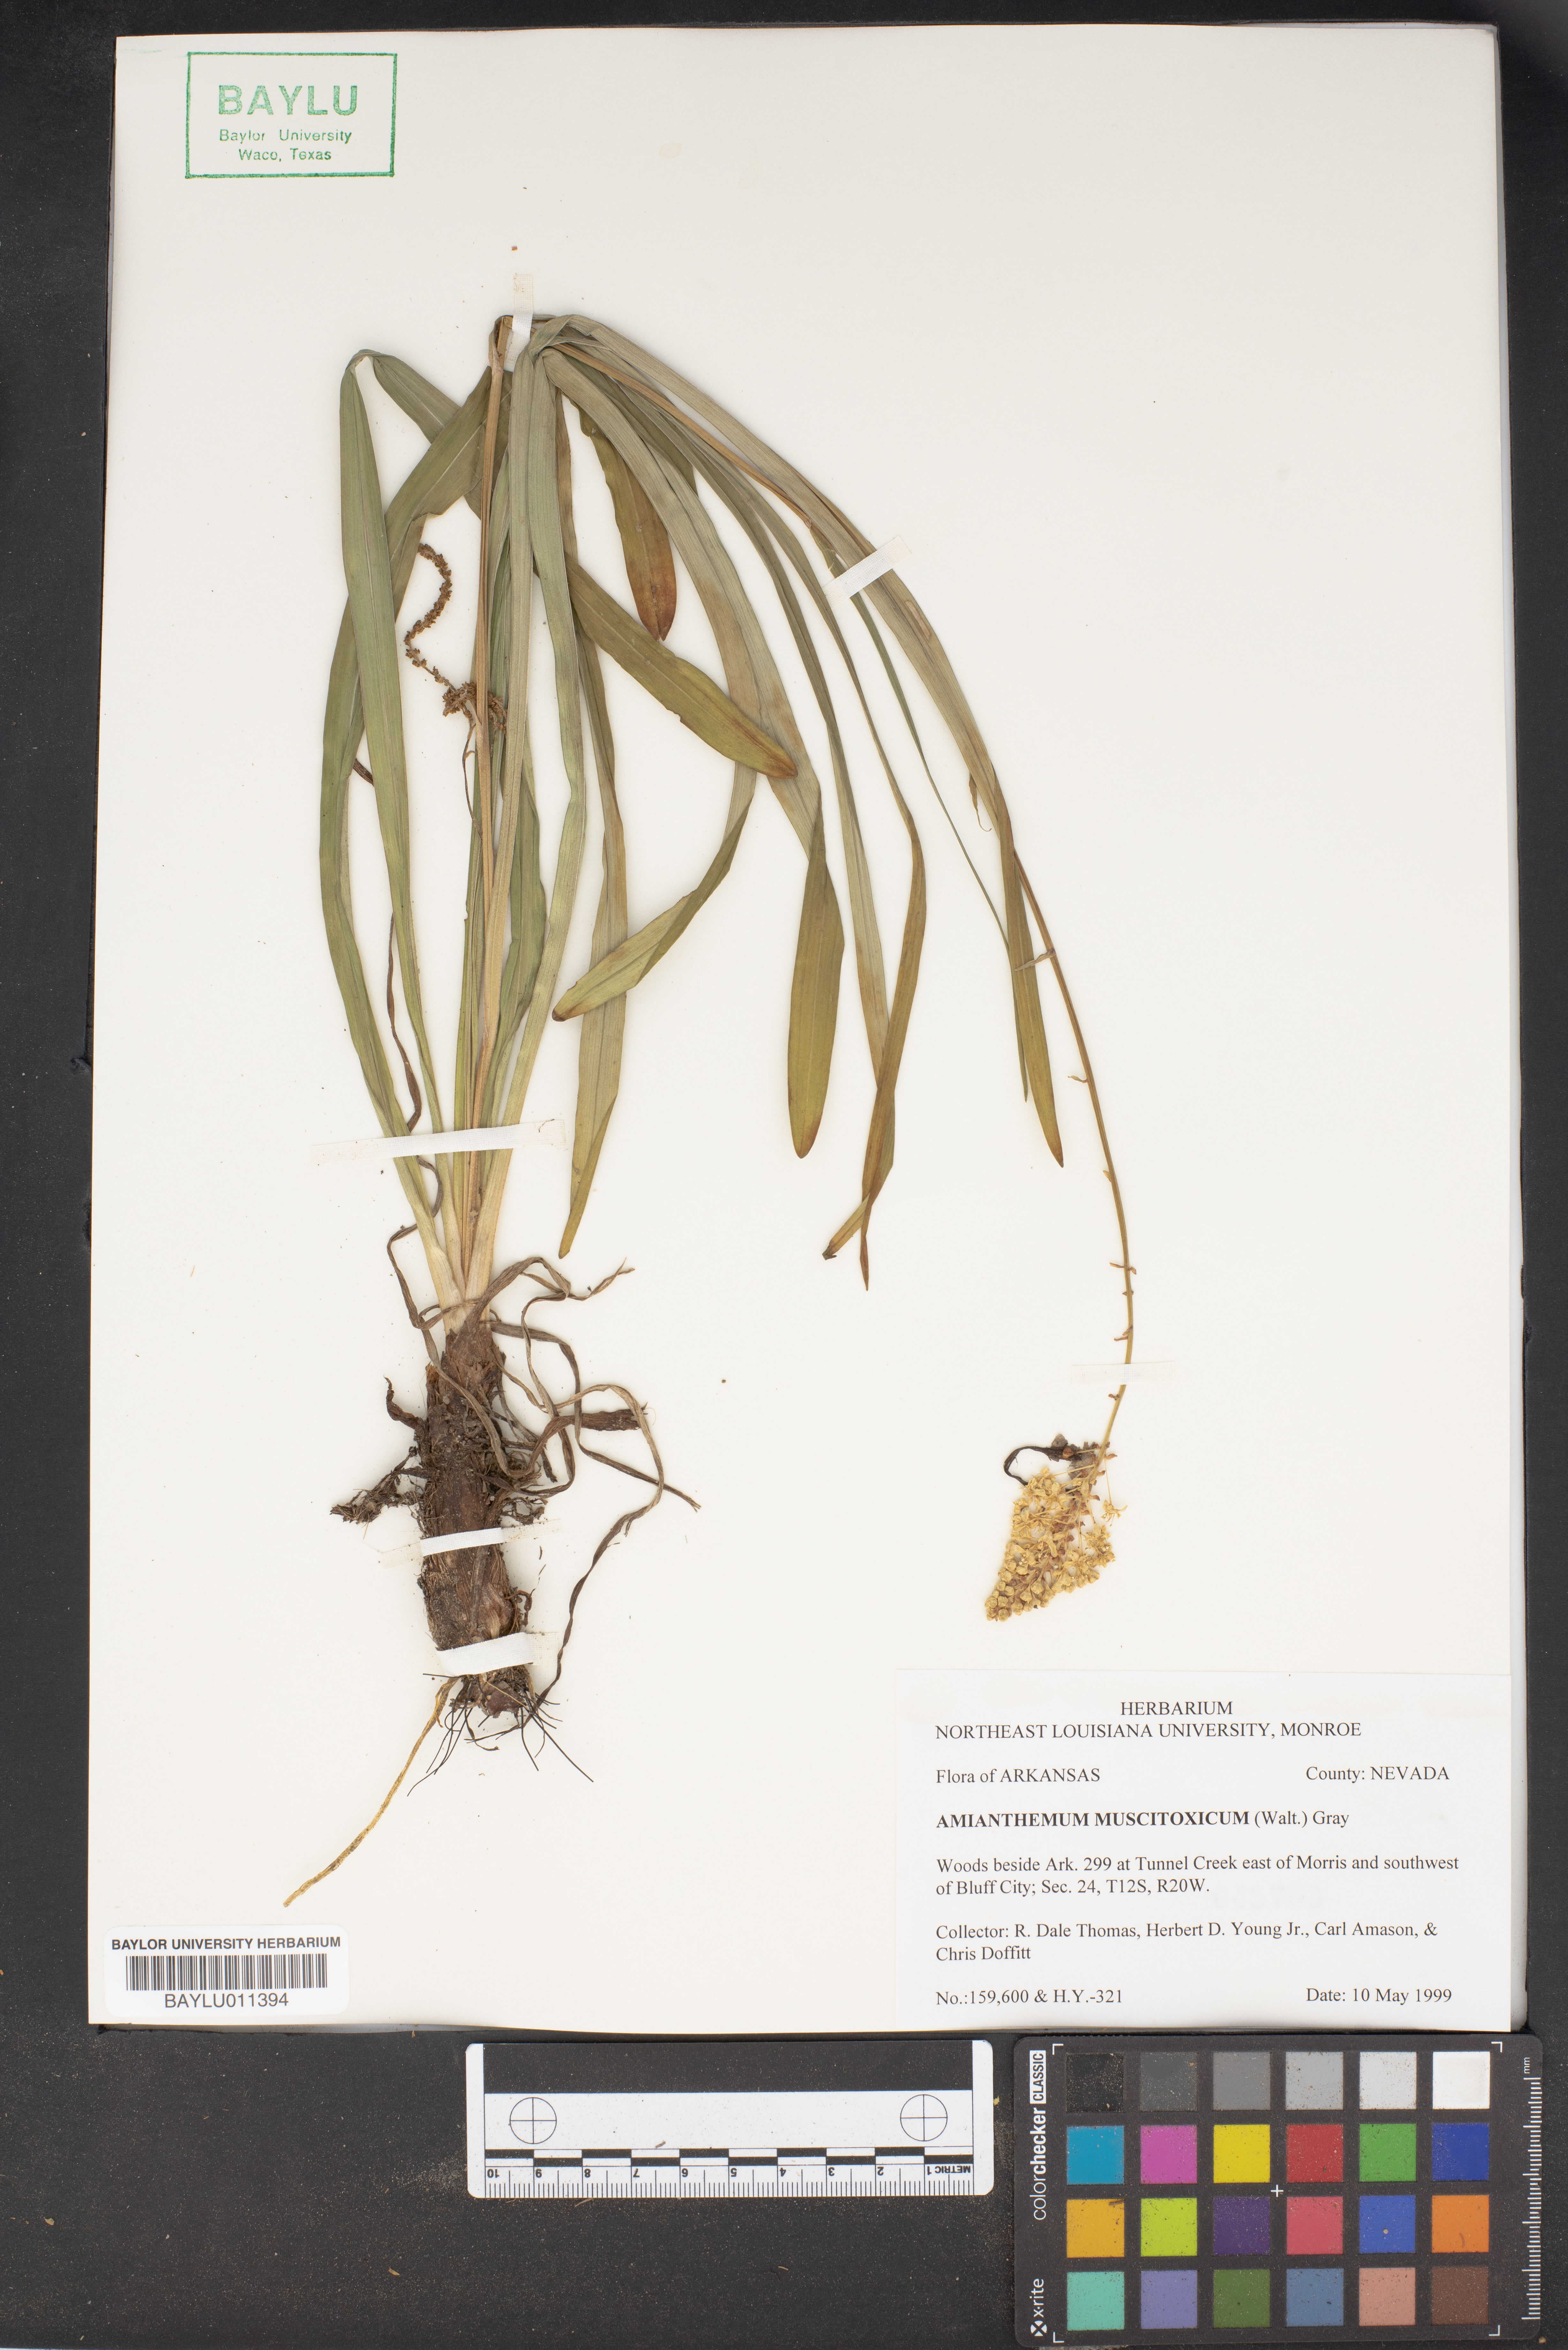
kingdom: Plantae
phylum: Tracheophyta
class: Liliopsida
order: Liliales
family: Melanthiaceae
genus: Amianthium
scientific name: Amianthium muscitoxicum
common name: Fly-poison
